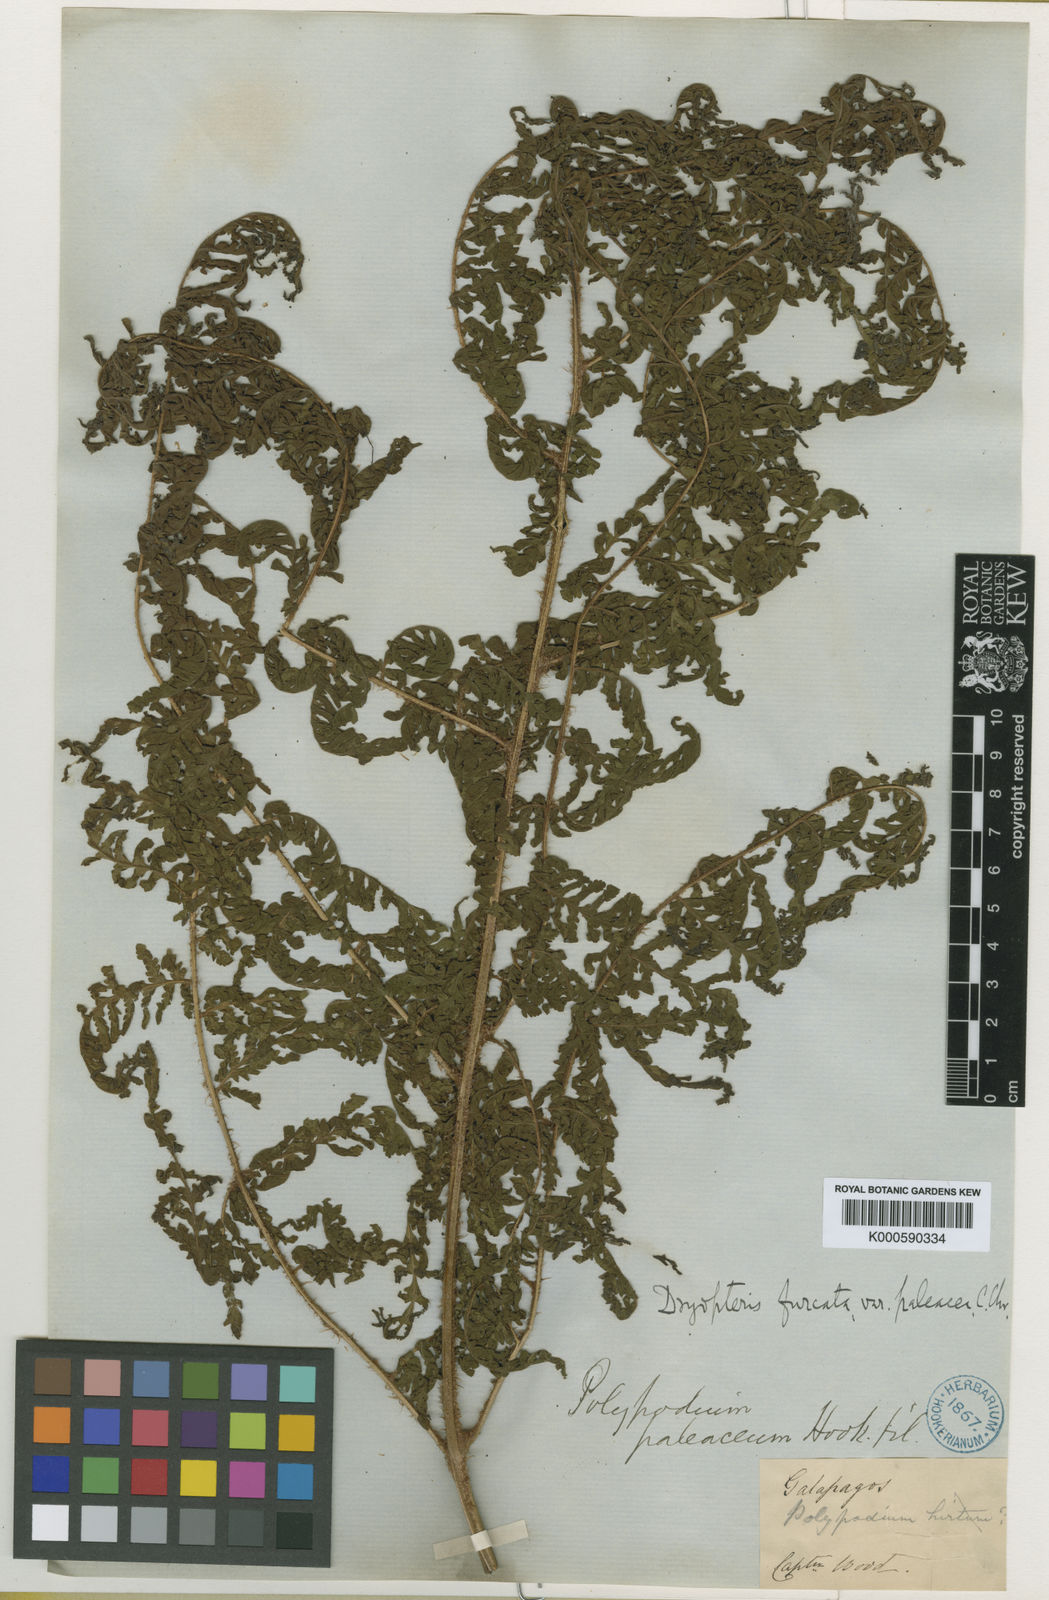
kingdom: Plantae
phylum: Tracheophyta
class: Polypodiopsida
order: Polypodiales
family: Dryopteridaceae
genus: Ctenitis
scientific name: Ctenitis sloanei
